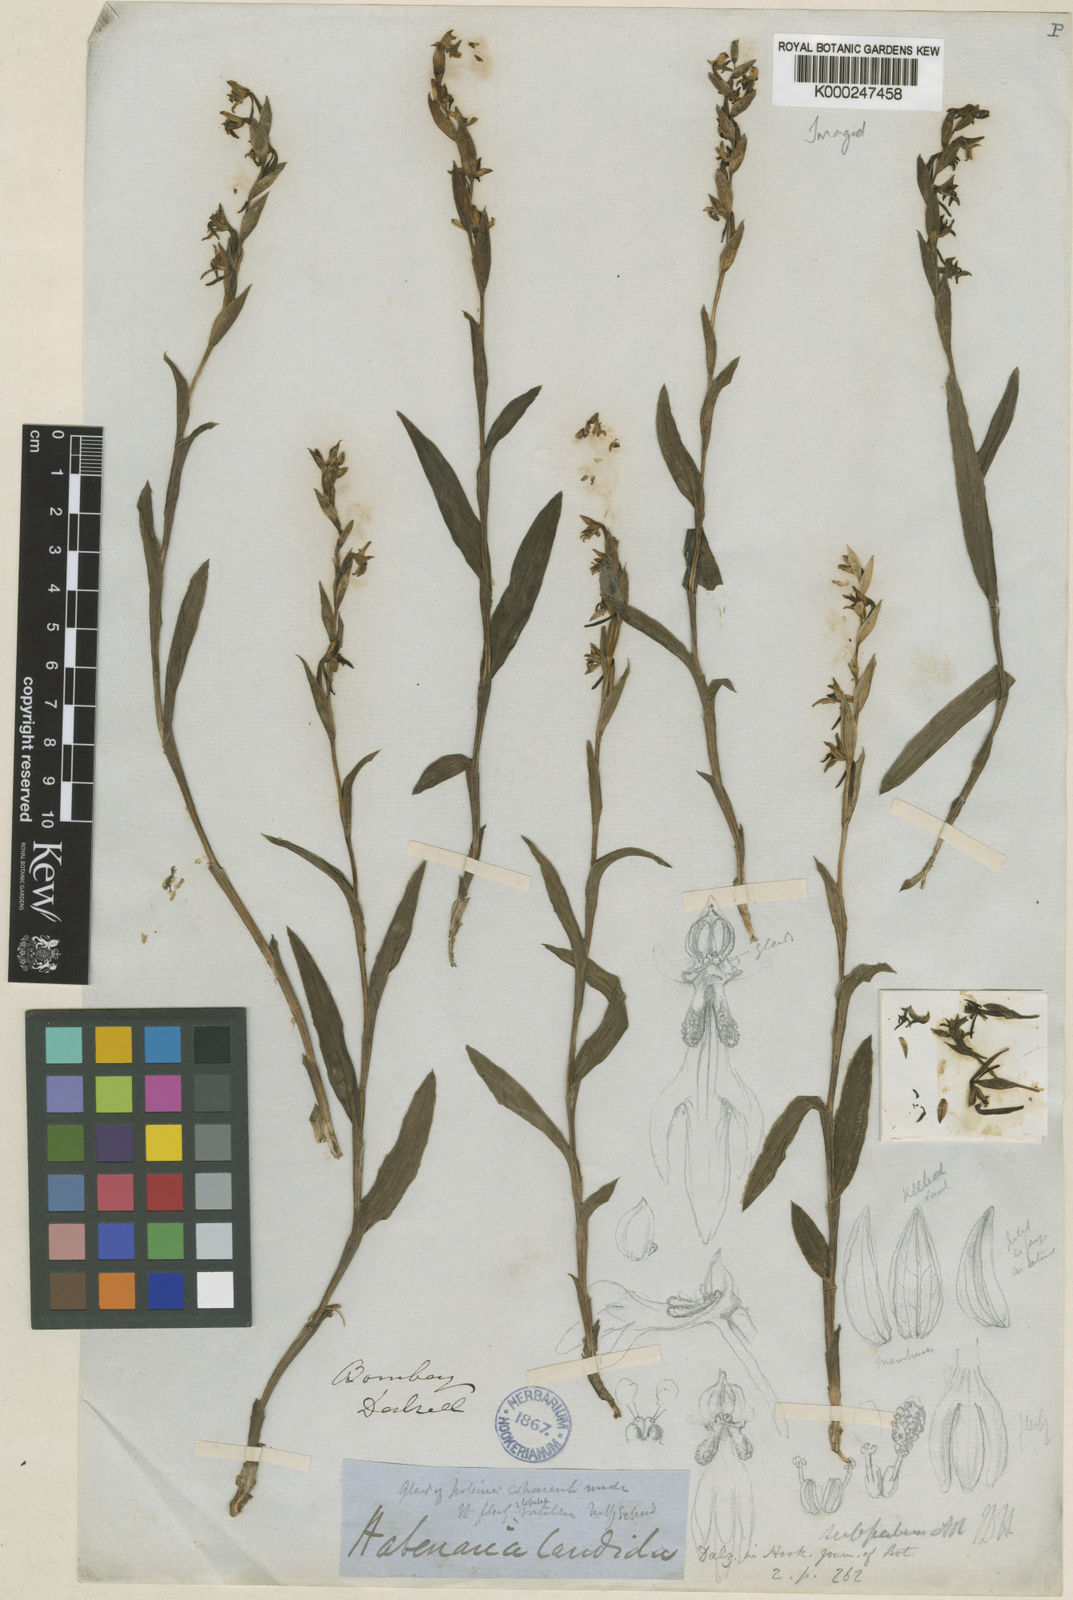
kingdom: Plantae
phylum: Tracheophyta
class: Liliopsida
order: Asparagales
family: Orchidaceae
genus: Habenaria
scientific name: Habenaria heyneana
